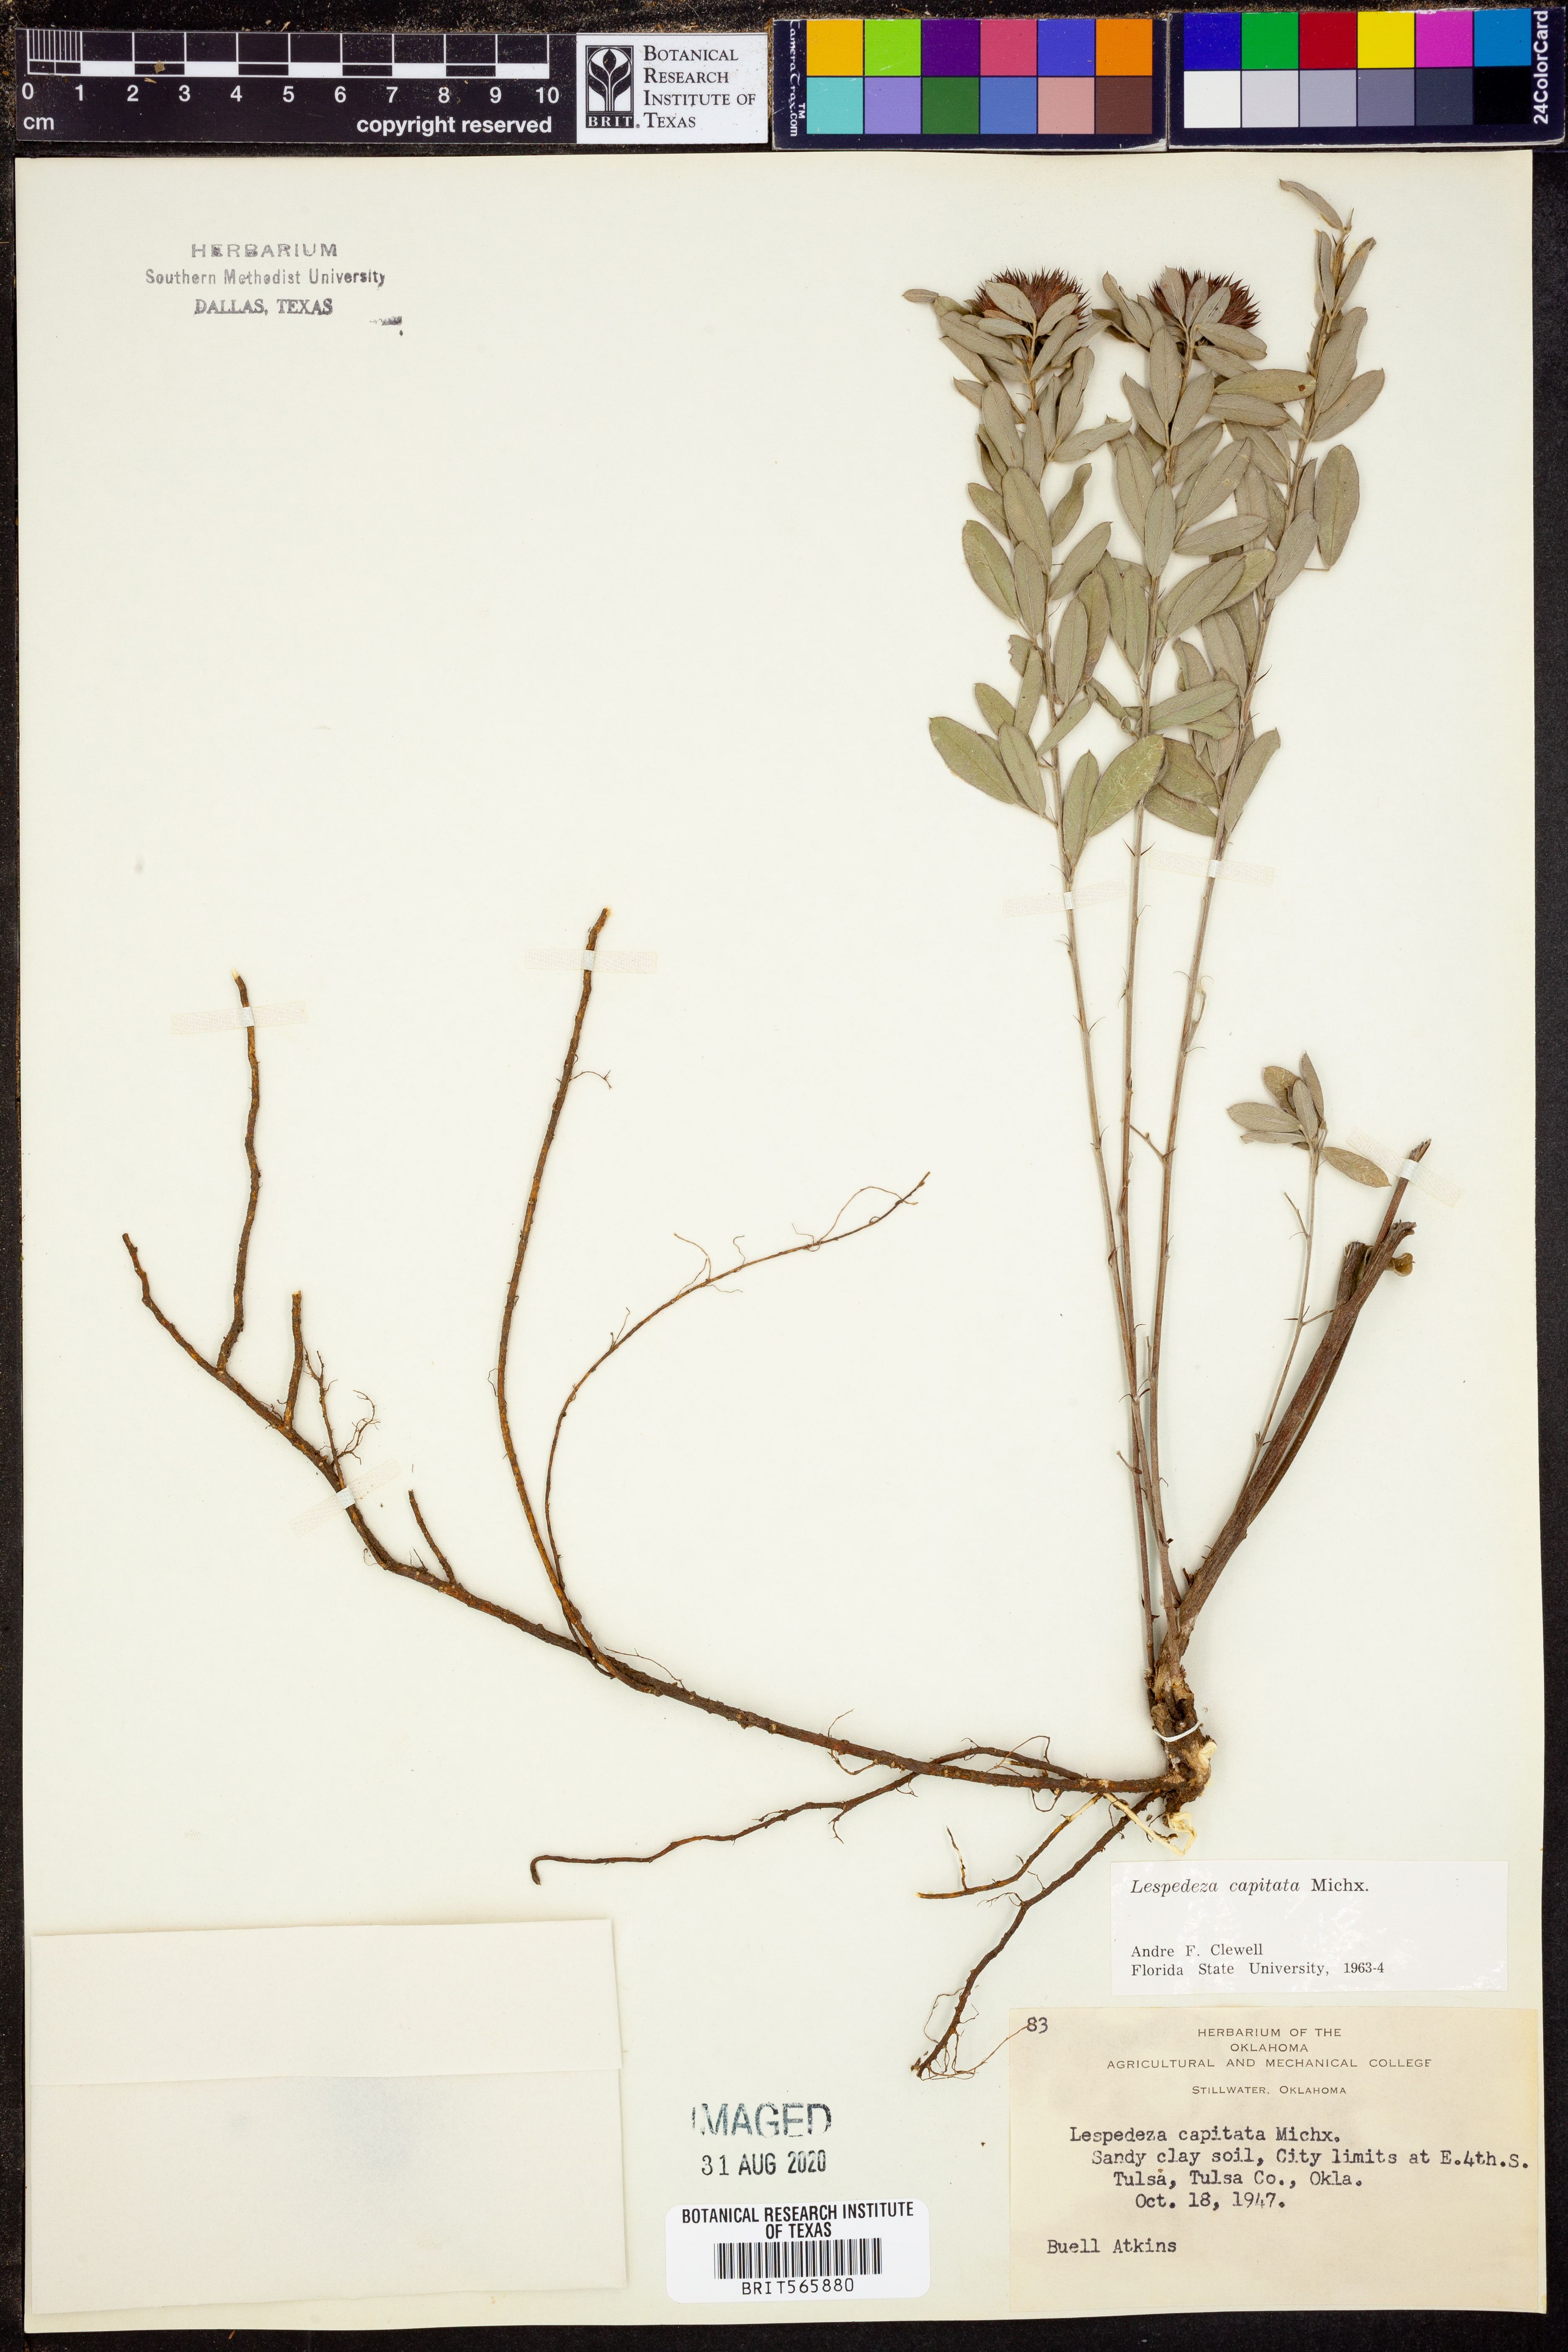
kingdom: Plantae
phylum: Tracheophyta
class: Magnoliopsida
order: Fabales
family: Fabaceae
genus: Lespedeza
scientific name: Lespedeza capitata
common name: Dusty clover
